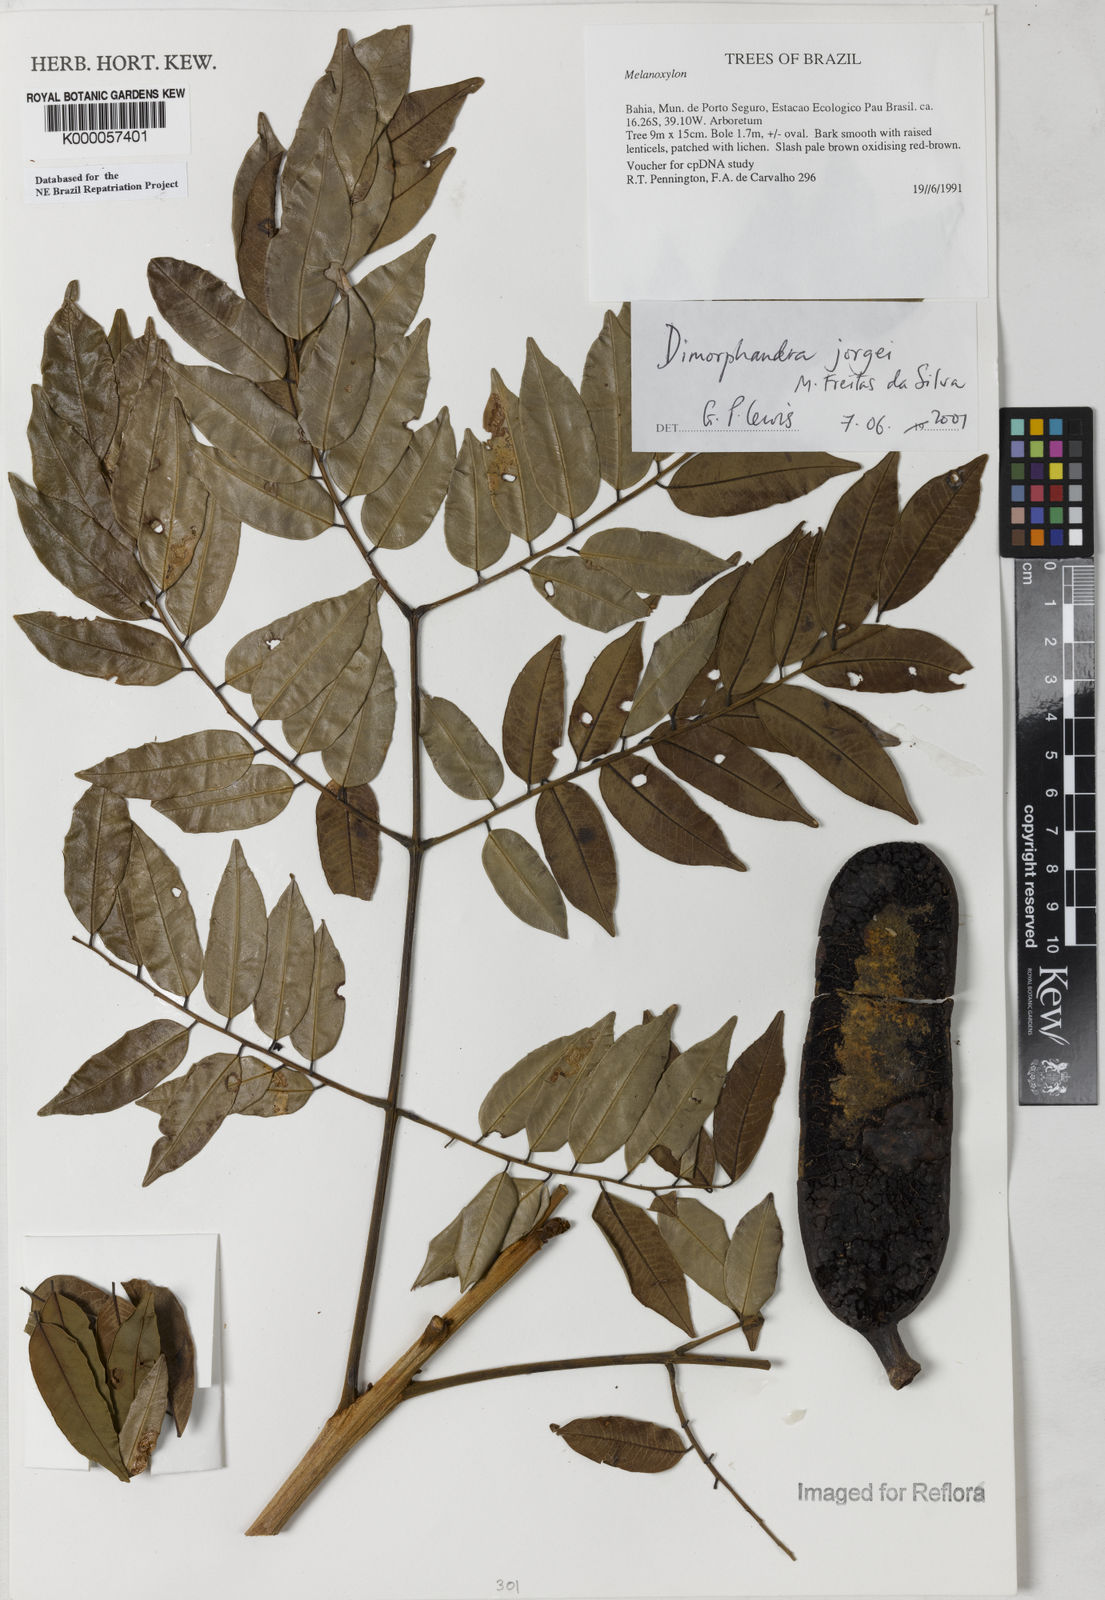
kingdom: Plantae
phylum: Tracheophyta
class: Magnoliopsida
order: Fabales
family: Fabaceae
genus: Dimorphandra
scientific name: Dimorphandra jorgei
